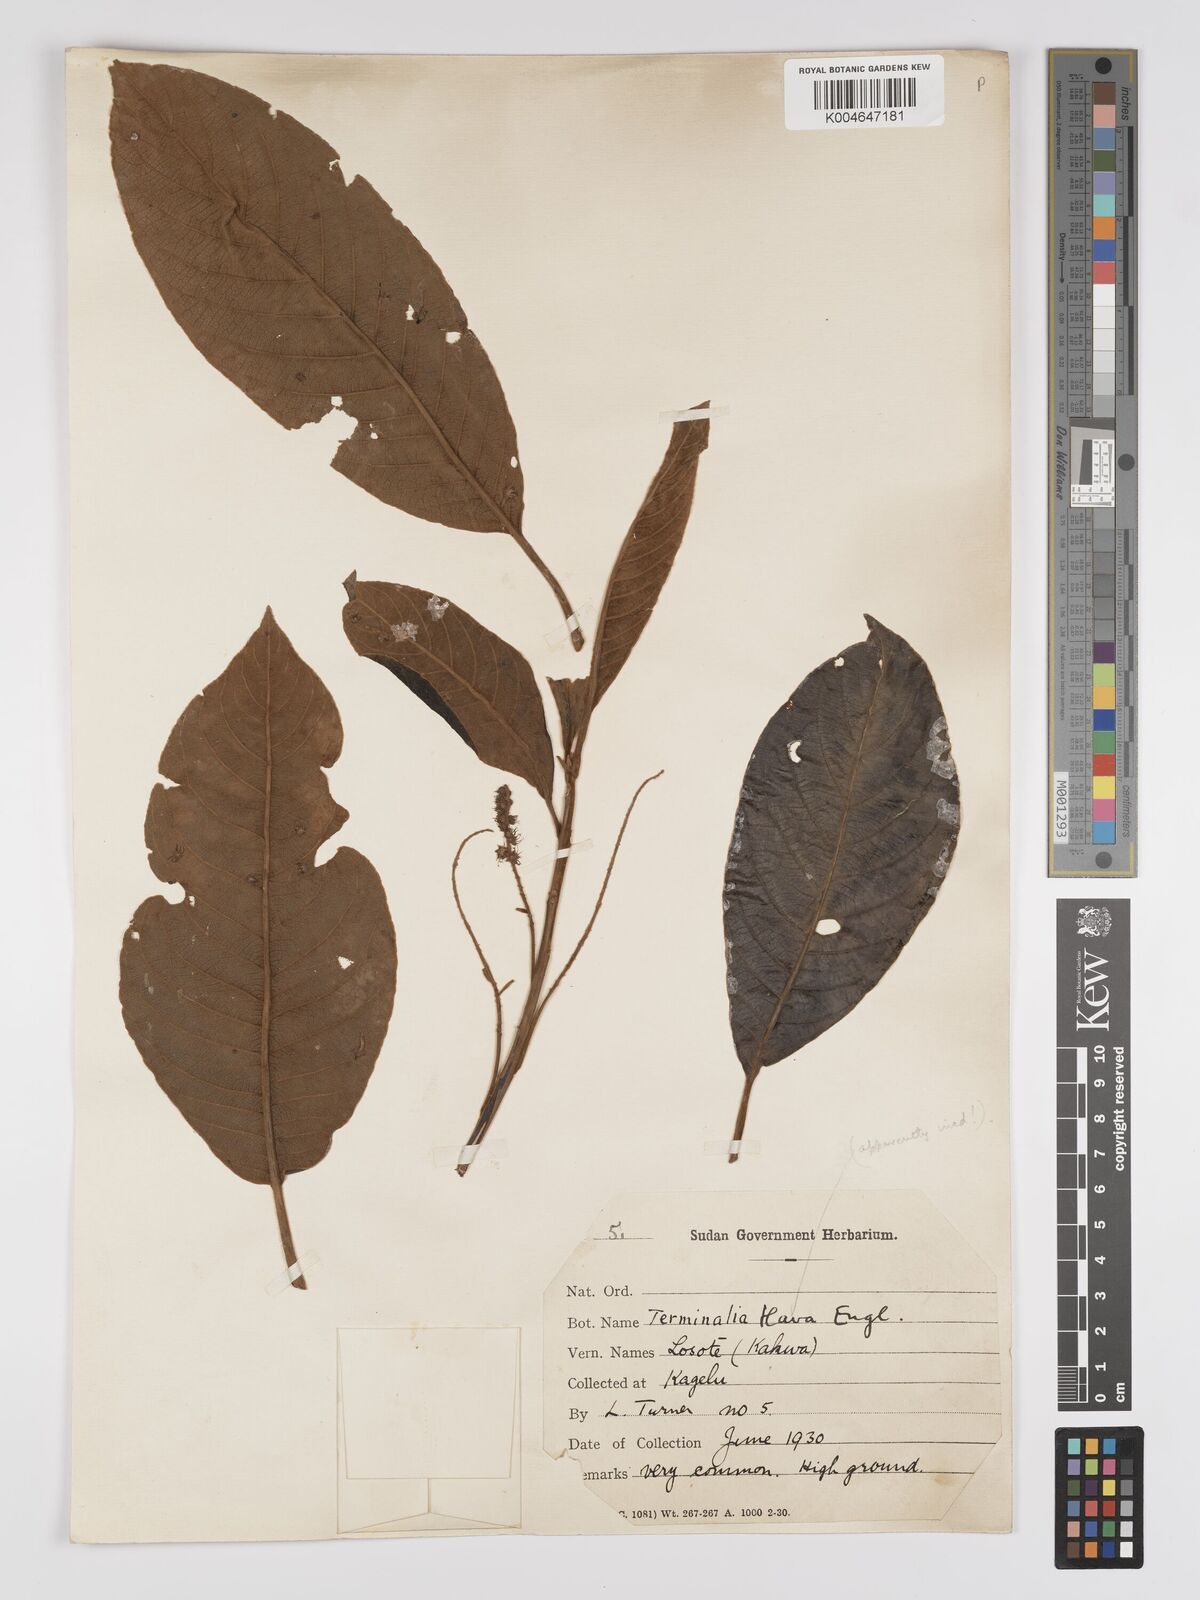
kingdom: Plantae
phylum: Tracheophyta
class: Magnoliopsida
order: Myrtales
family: Combretaceae
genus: Terminalia
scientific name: Terminalia schimperiana
